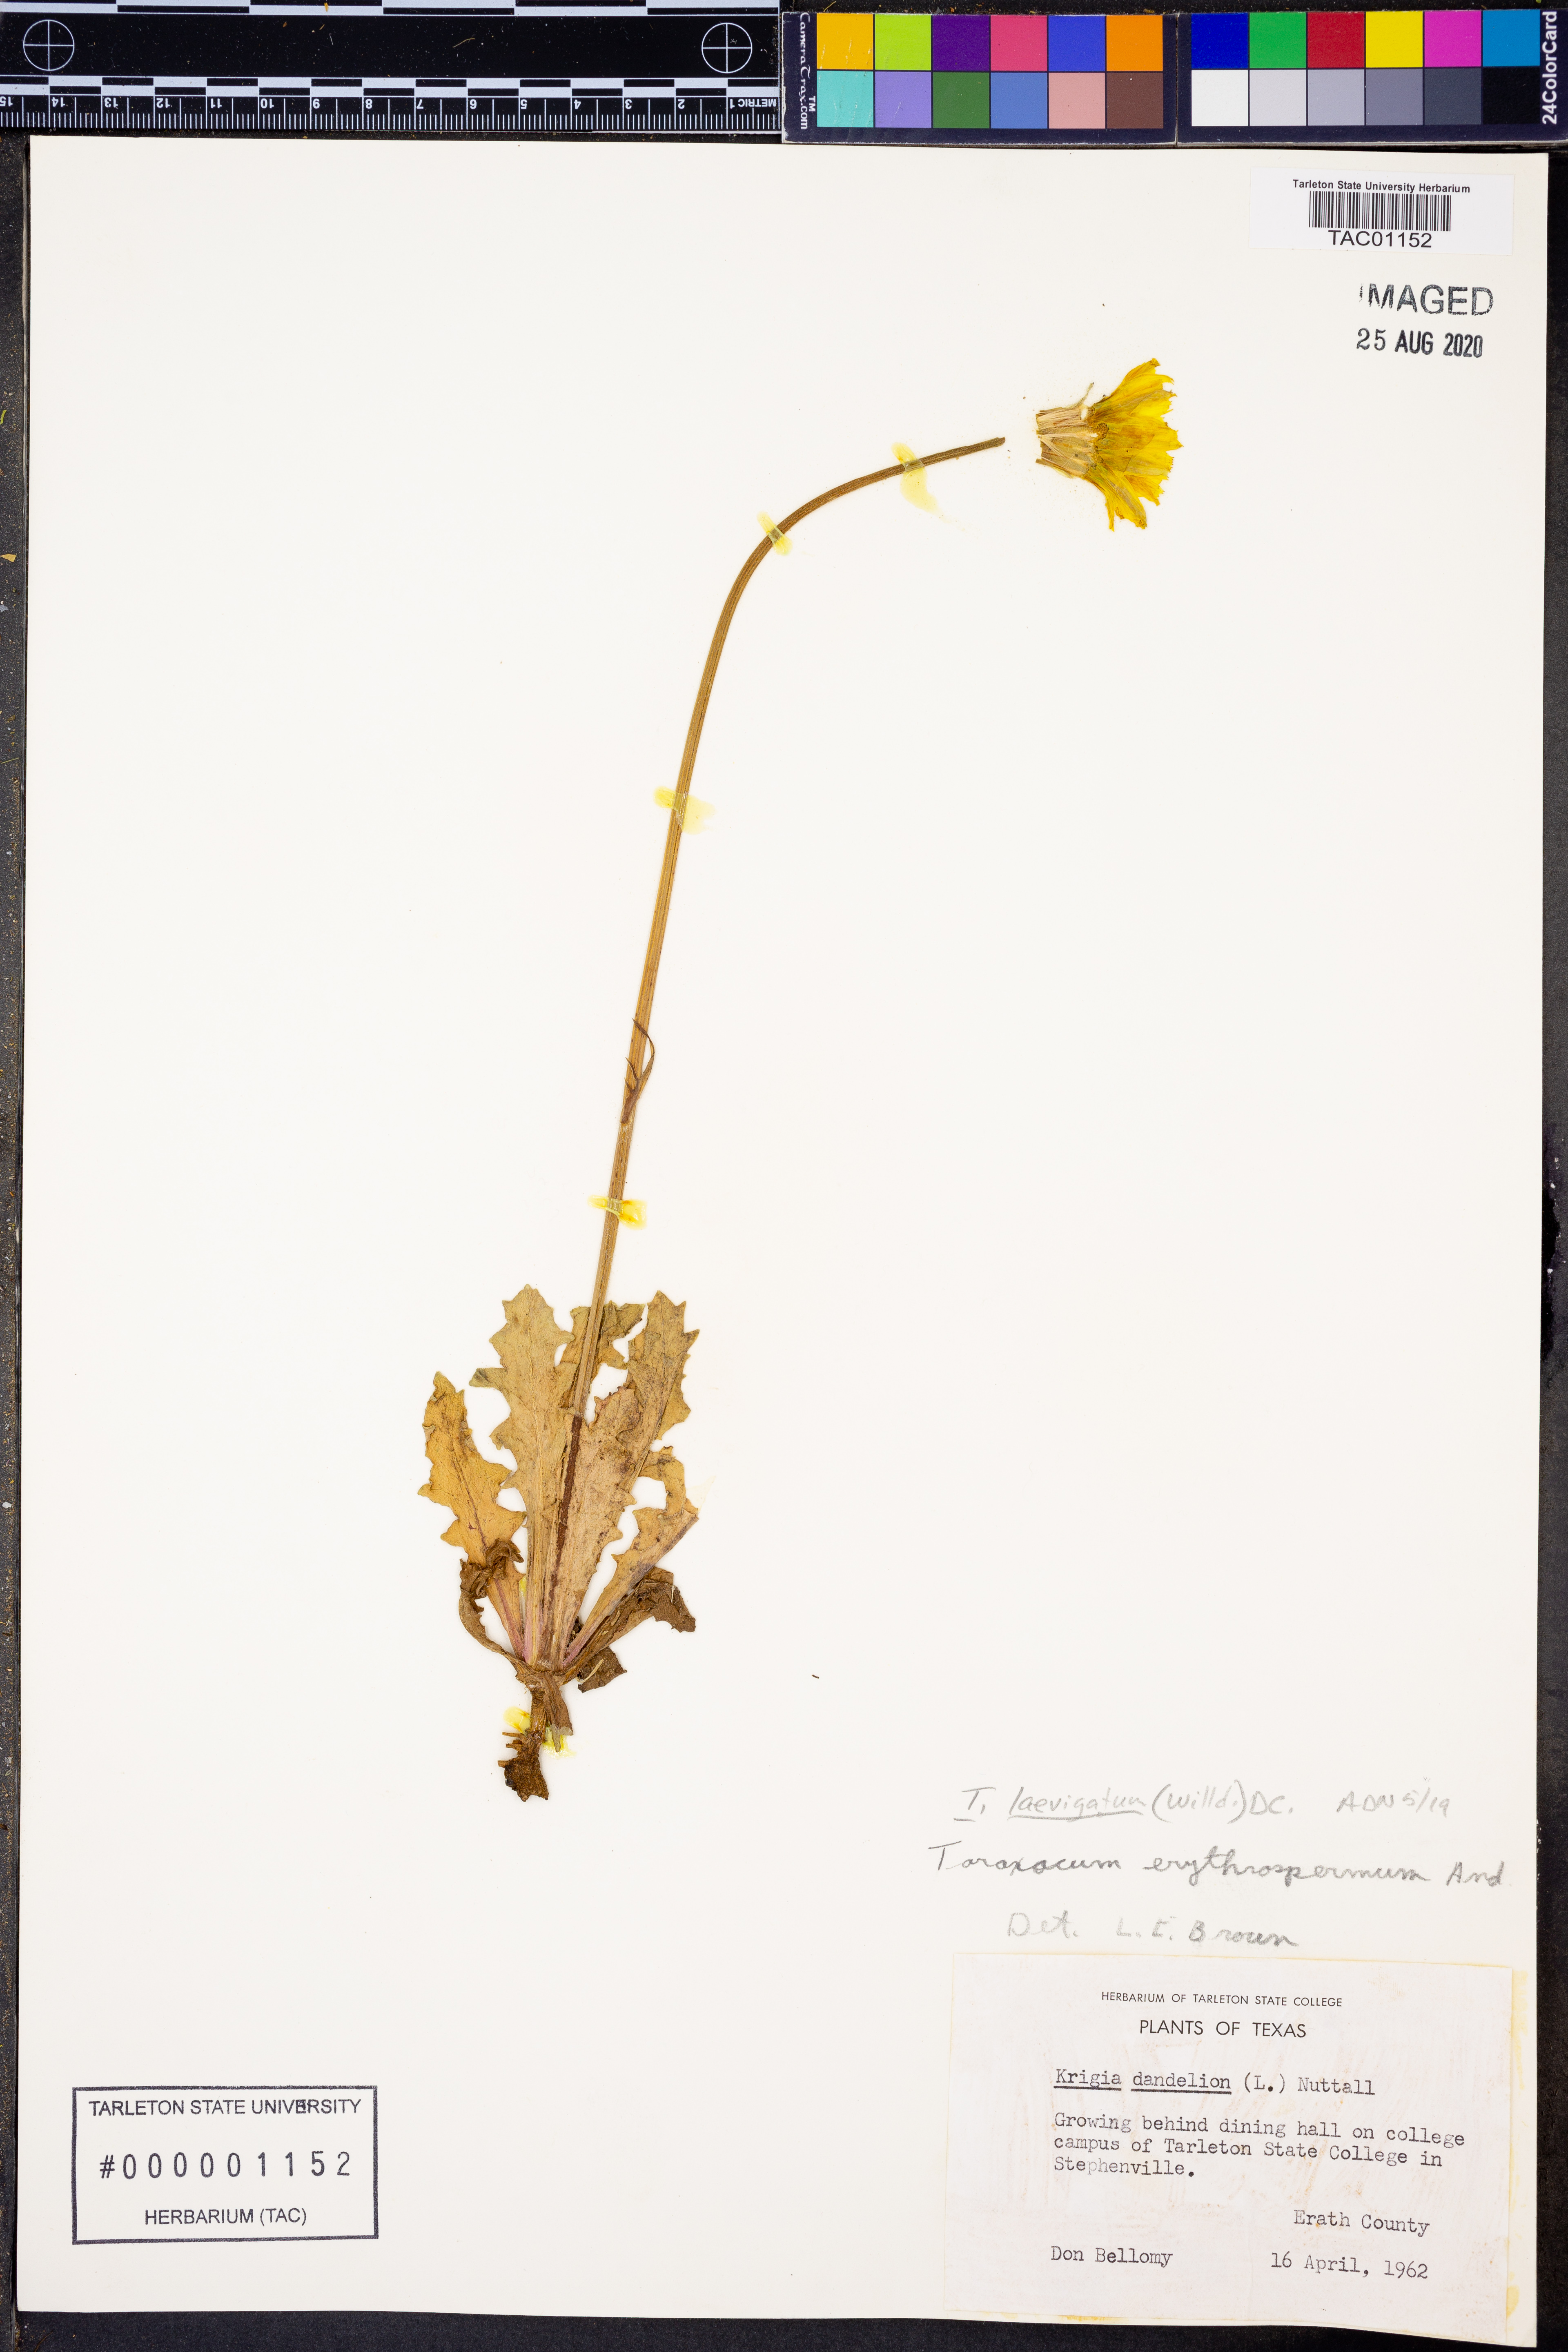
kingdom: Plantae
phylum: Tracheophyta
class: Magnoliopsida
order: Asterales
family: Asteraceae
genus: Taraxacum
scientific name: Taraxacum erythrospermum
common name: Rock dandelion
